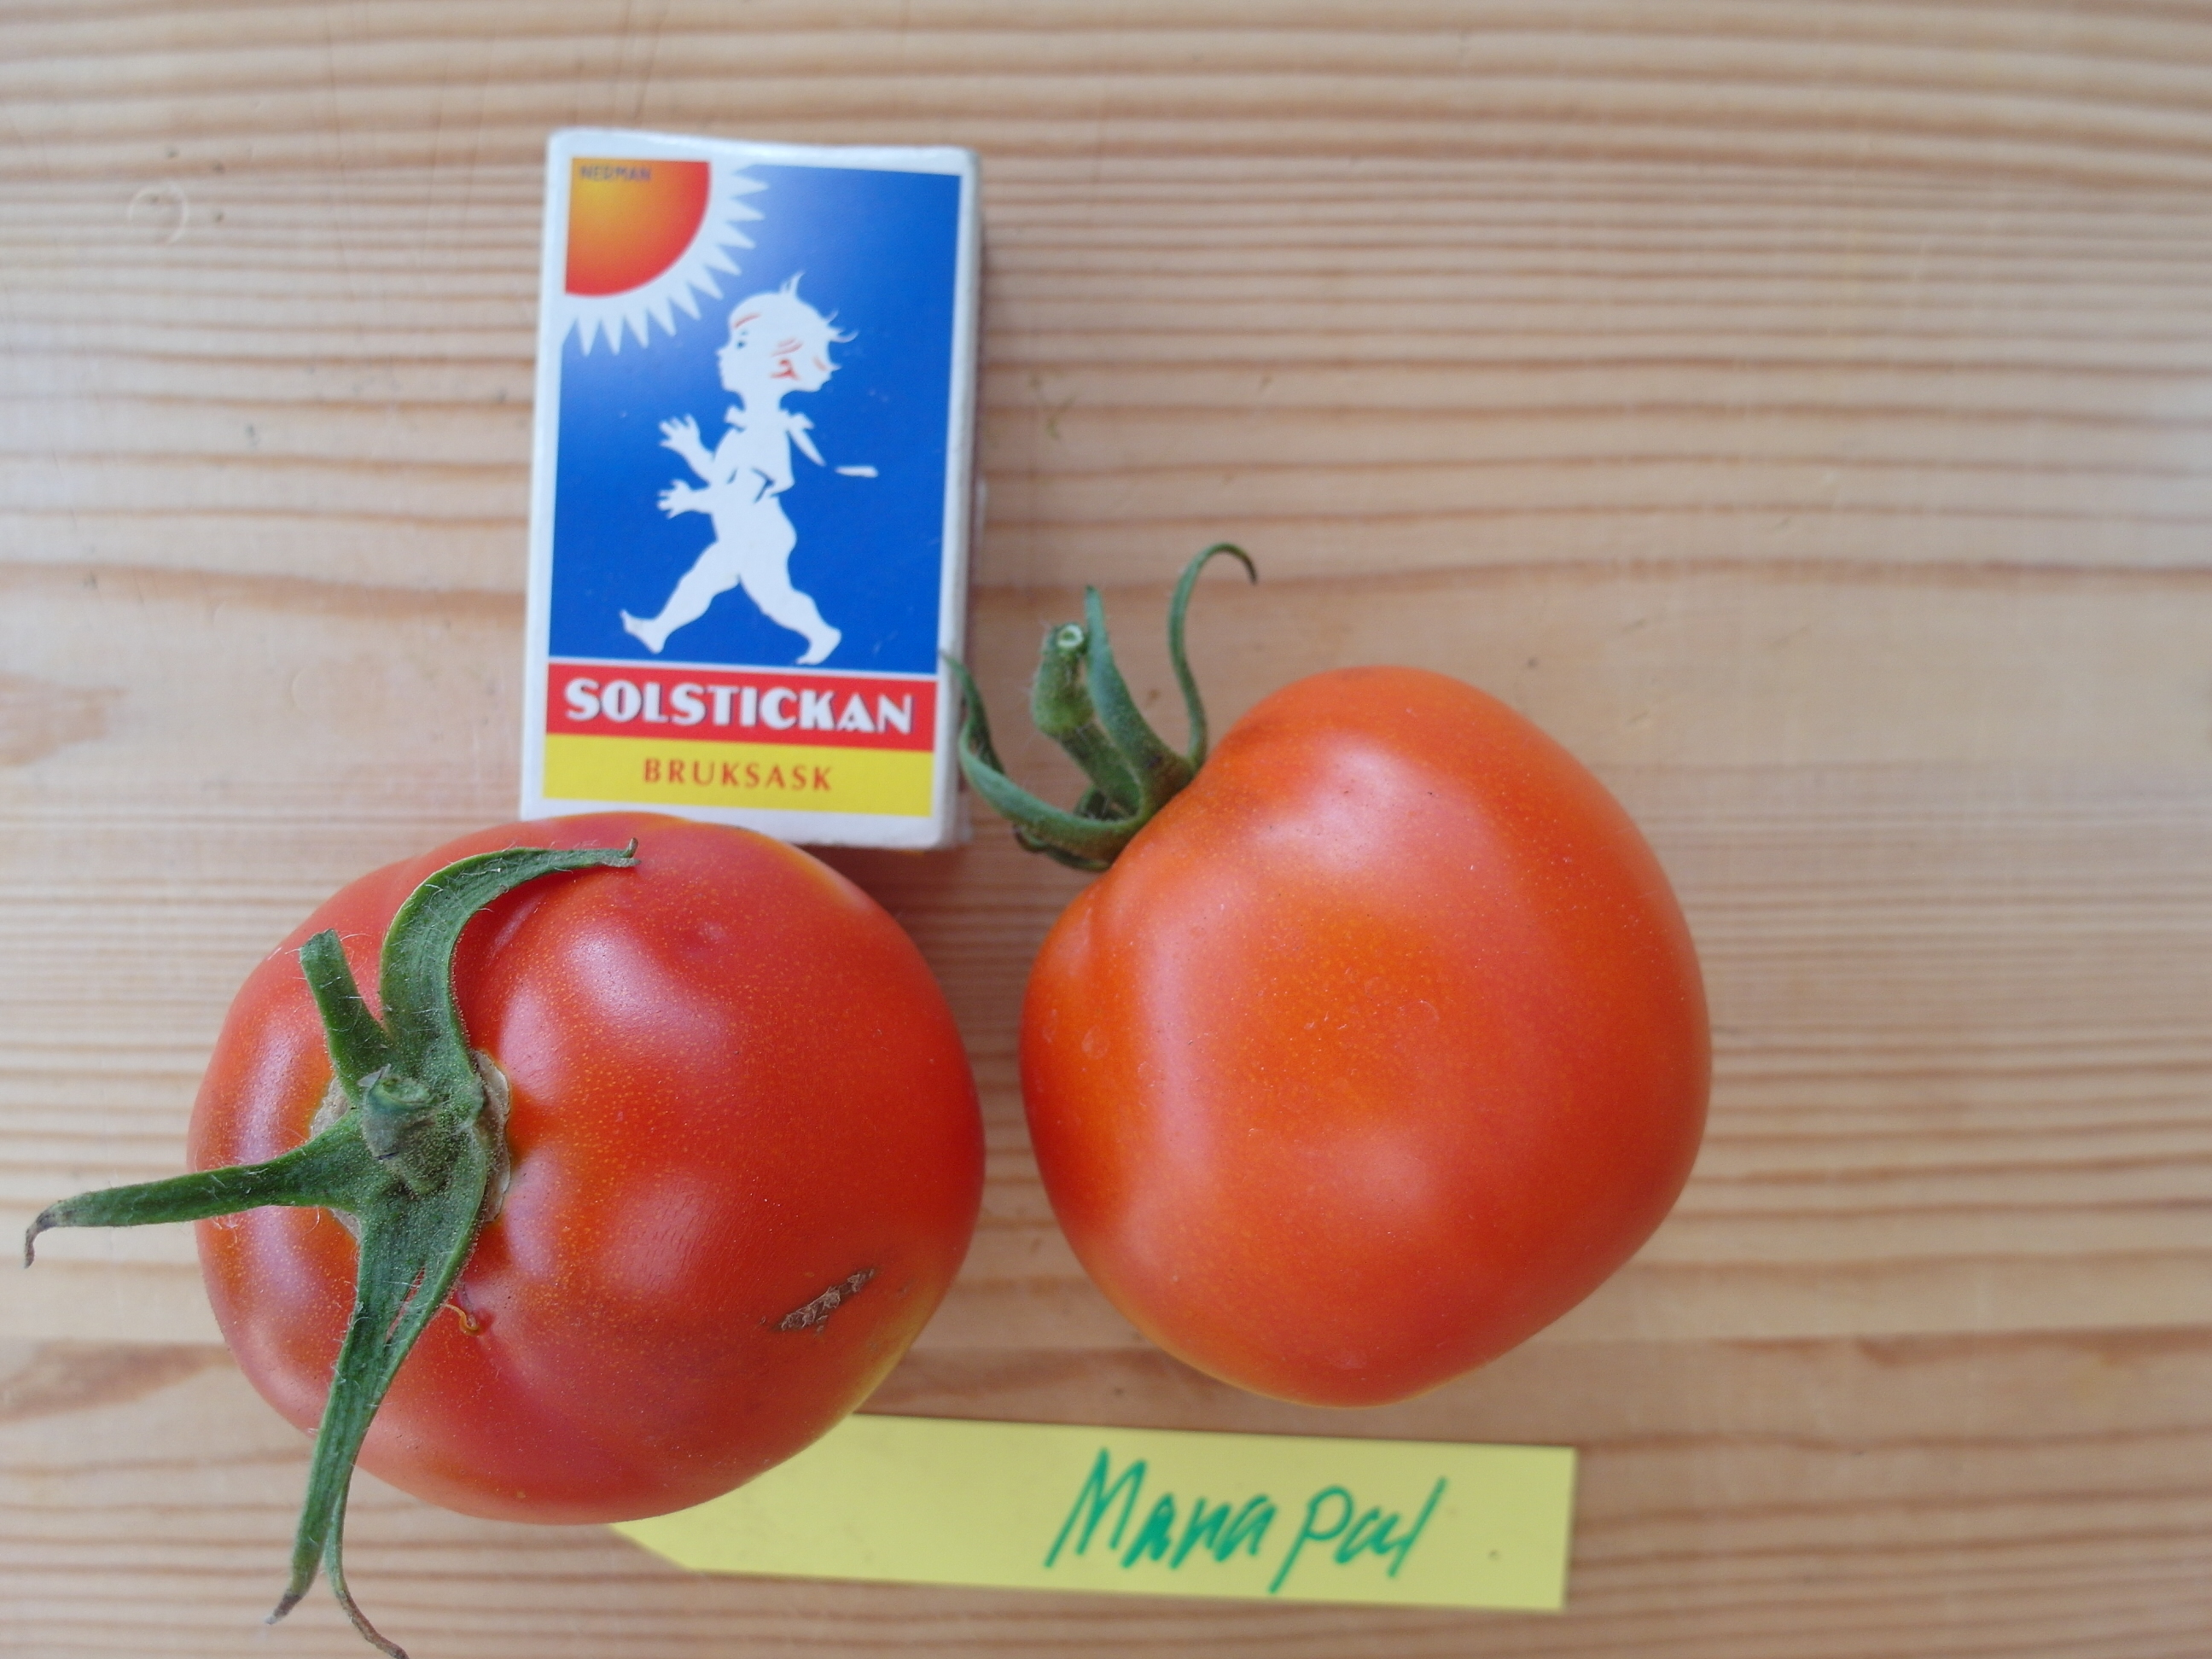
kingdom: Plantae
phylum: Tracheophyta
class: Magnoliopsida
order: Solanales
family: Solanaceae
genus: Solanum
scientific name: Solanum lycopersicum
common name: Garden tomato
